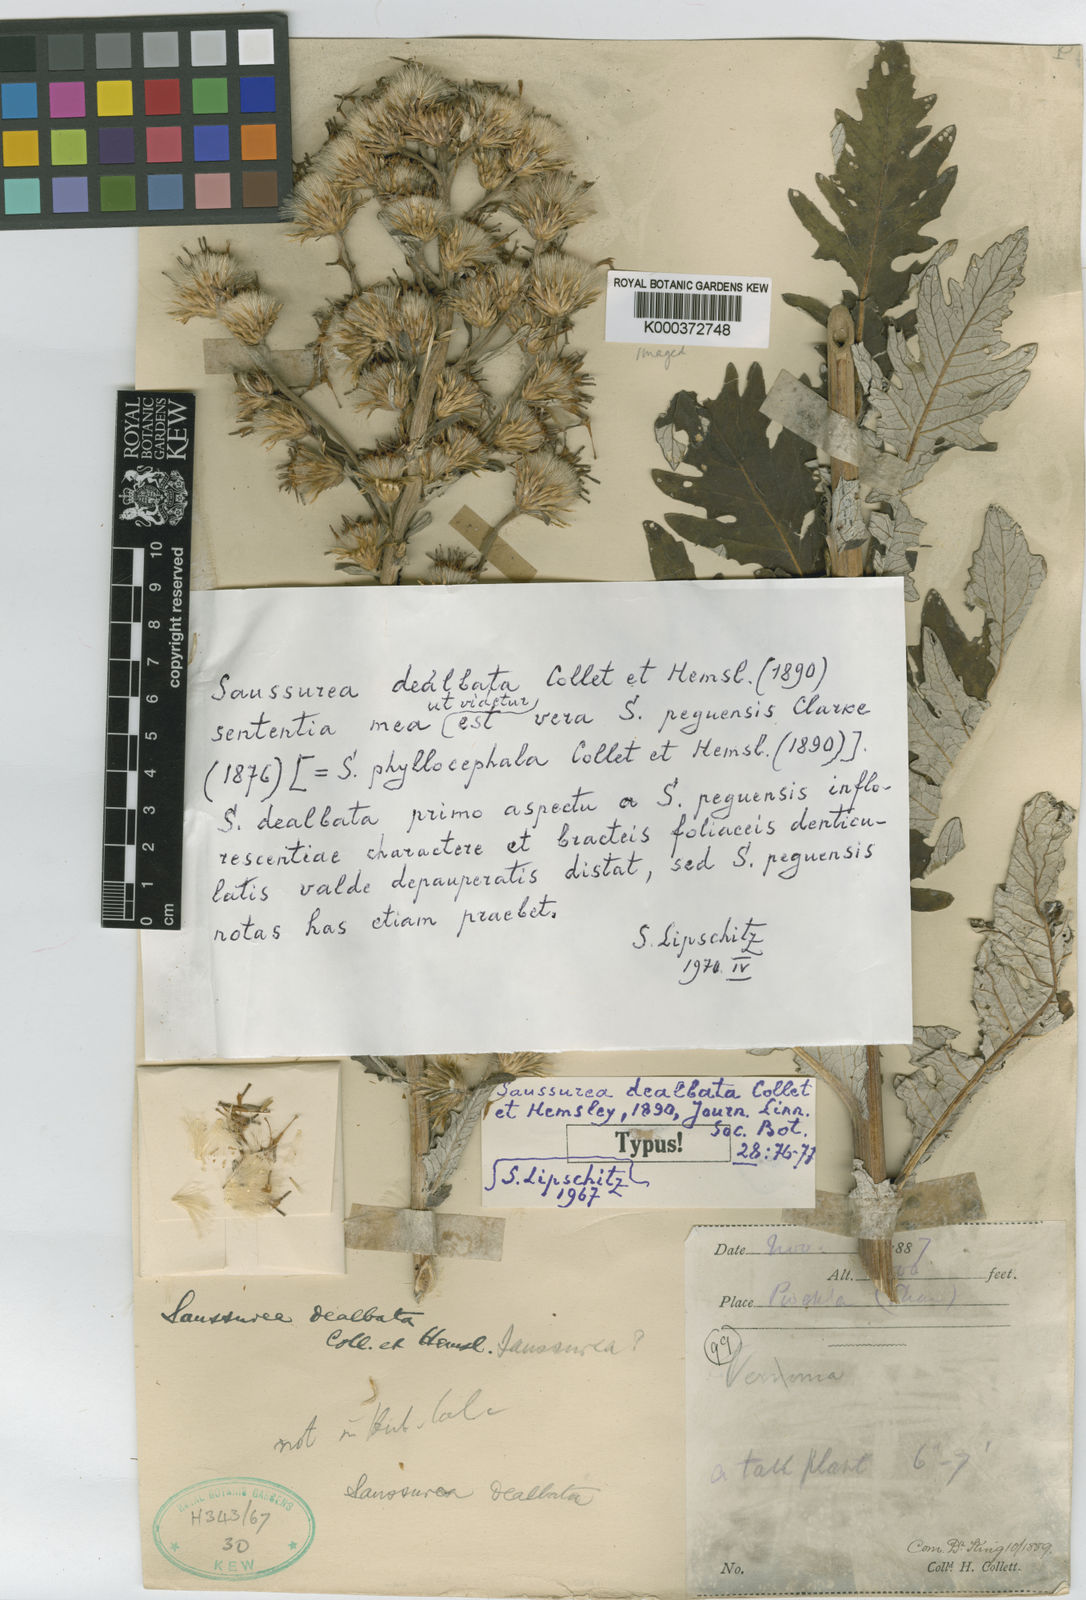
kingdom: Plantae
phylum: Tracheophyta
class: Magnoliopsida
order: Asterales
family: Asteraceae
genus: Jurinea
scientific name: Jurinea peguensis
